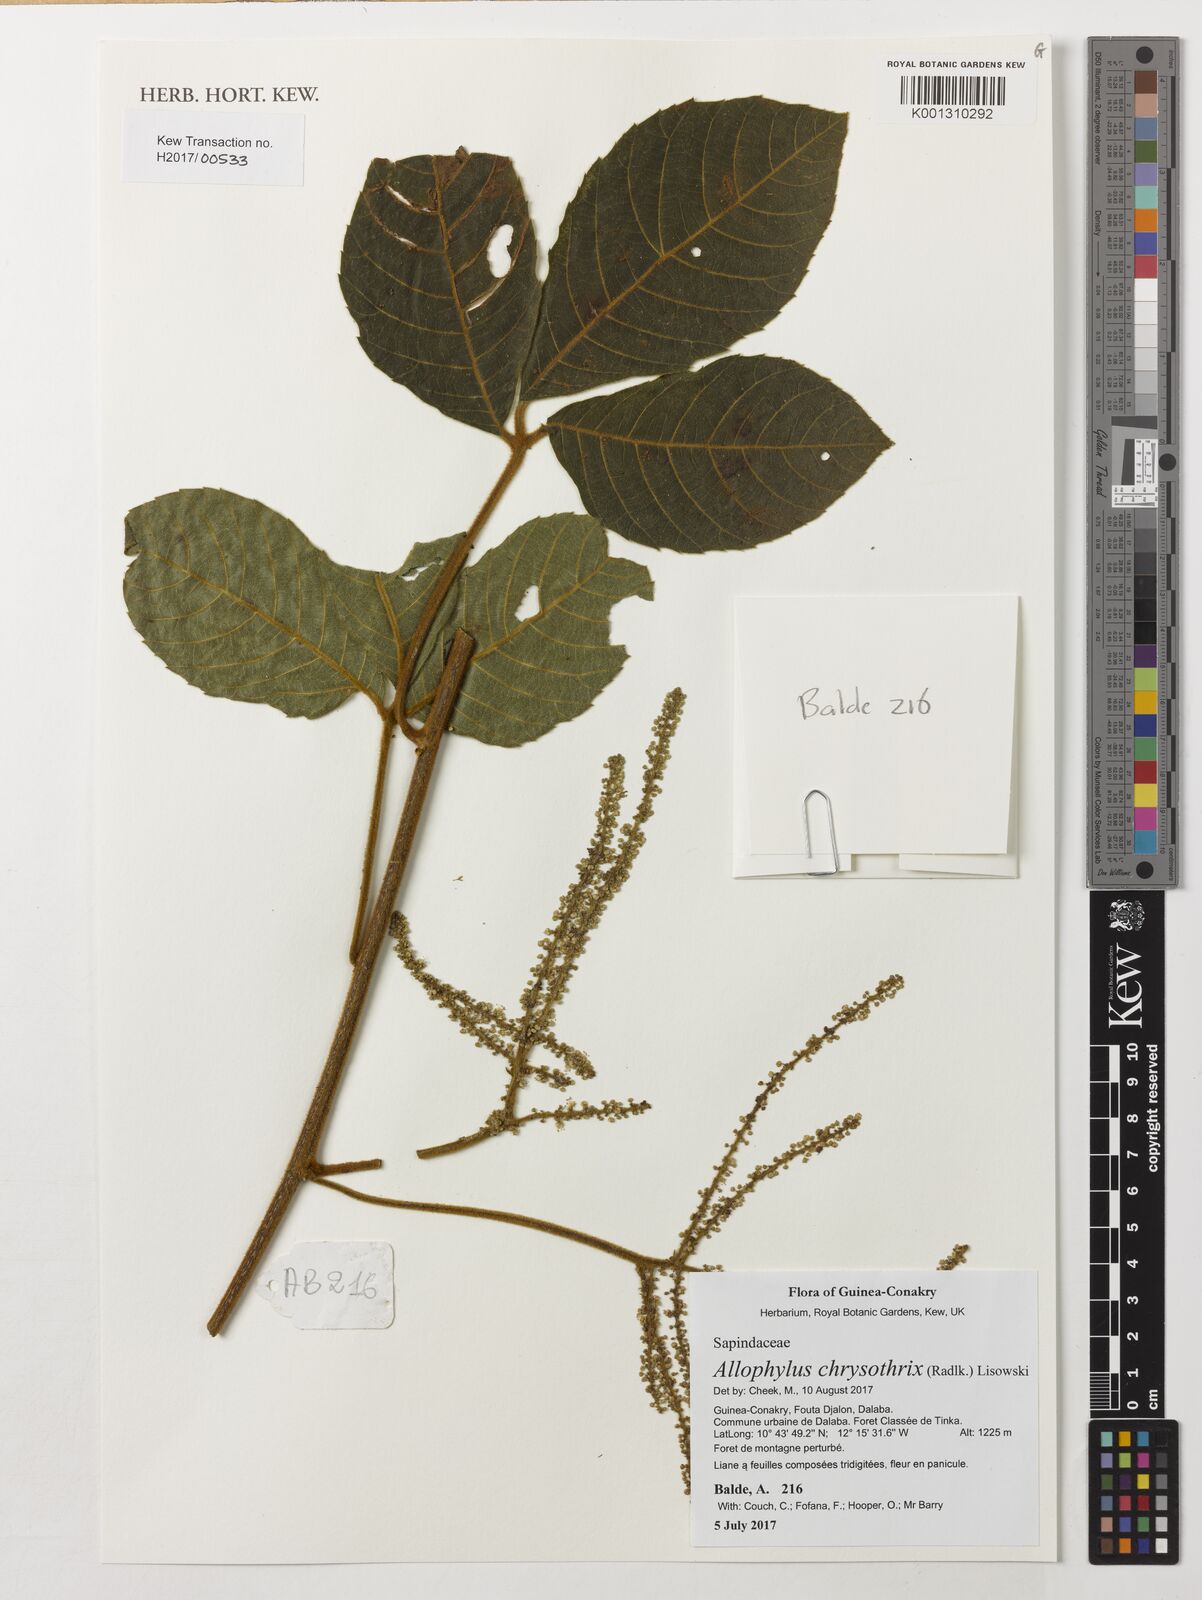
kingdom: Plantae
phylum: Tracheophyta
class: Magnoliopsida
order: Sapindales
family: Sapindaceae
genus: Allophylus
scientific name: Allophylus chrysothrix
